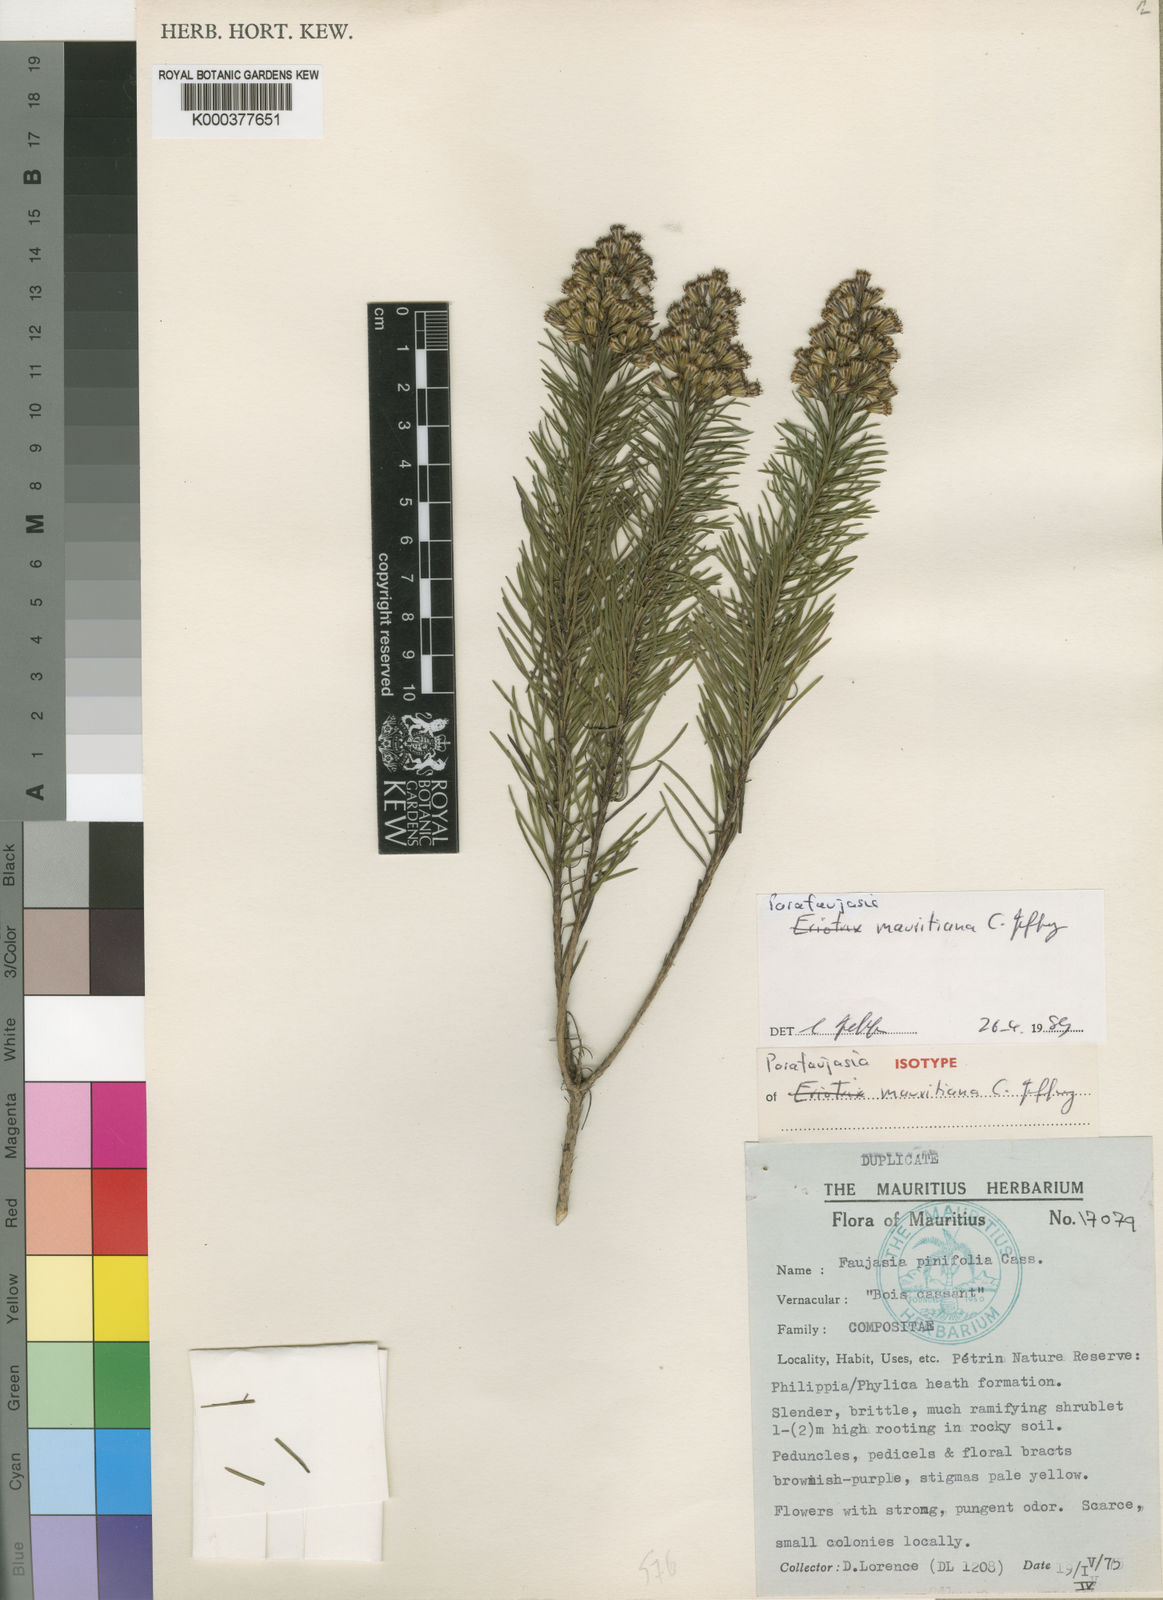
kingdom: Plantae
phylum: Tracheophyta
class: Magnoliopsida
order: Asterales
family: Asteraceae
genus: Parafaujasia
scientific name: Parafaujasia mauritiana
